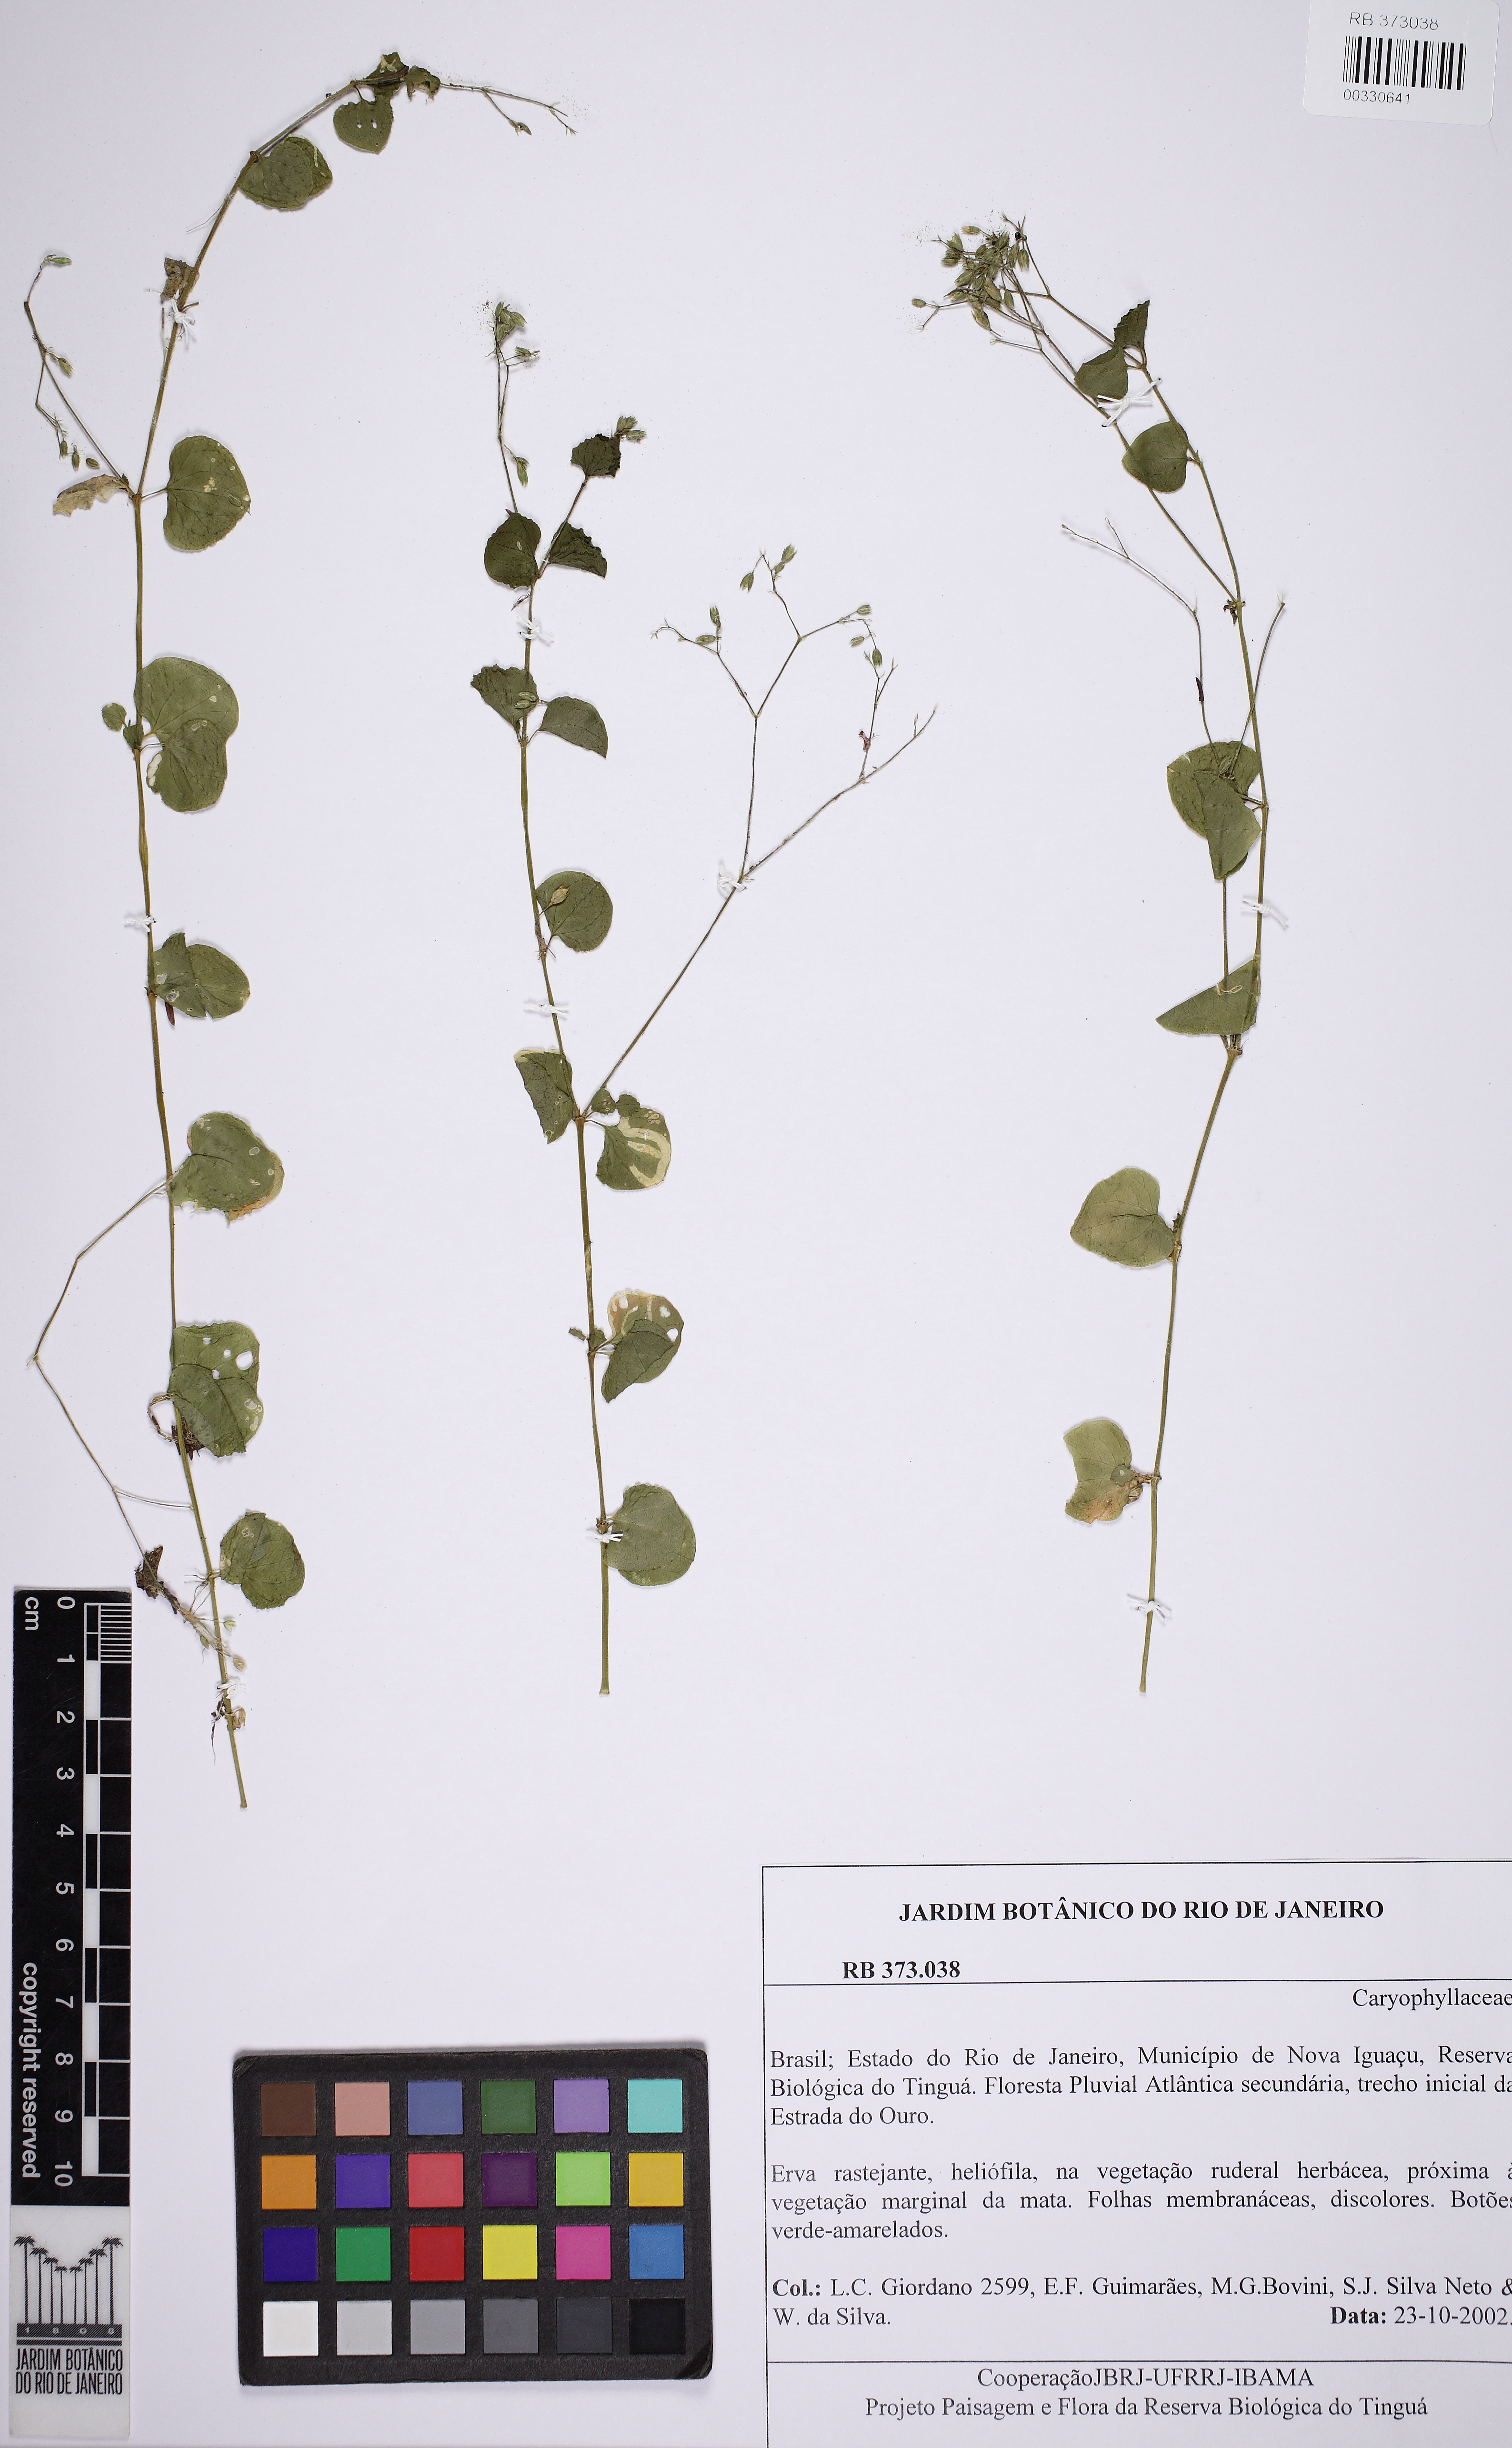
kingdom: Plantae
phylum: Tracheophyta
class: Magnoliopsida
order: Caryophyllales
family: Caryophyllaceae
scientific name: Caryophyllaceae
